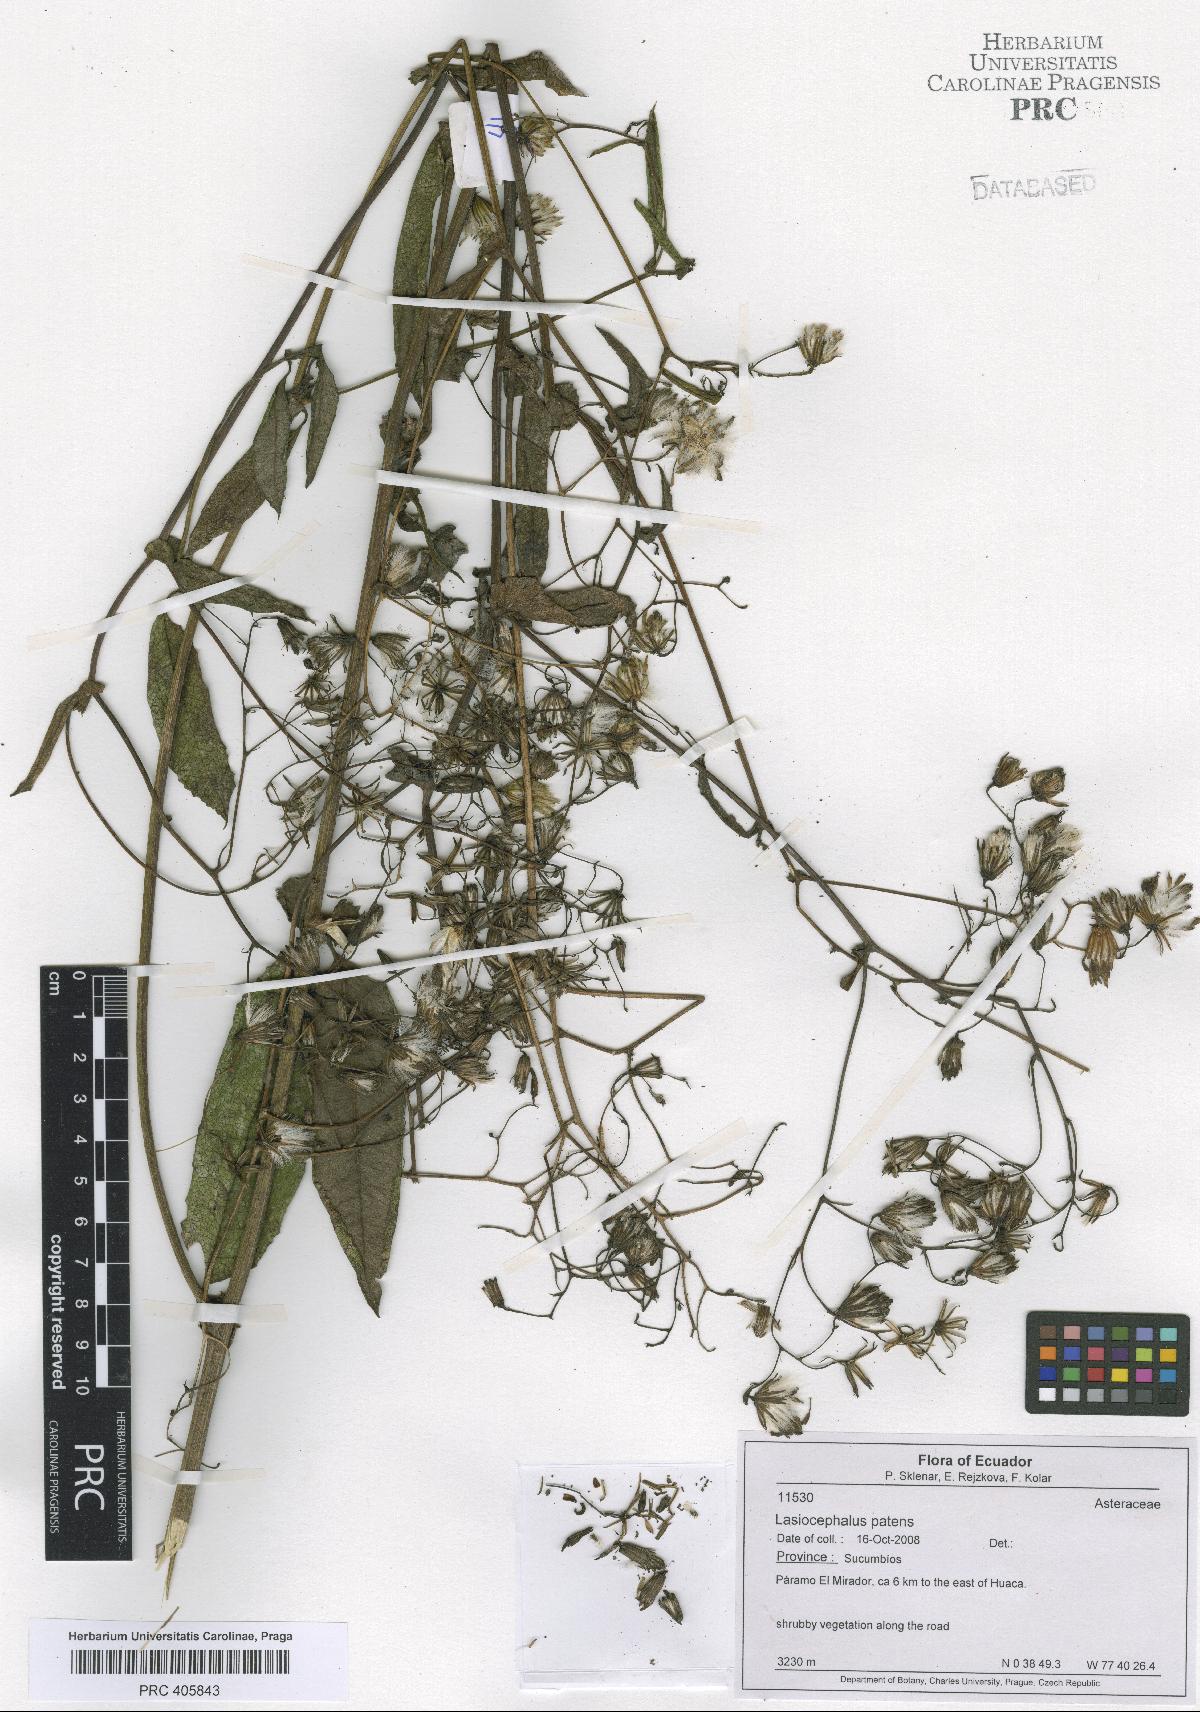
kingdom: Plantae
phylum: Tracheophyta
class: Magnoliopsida
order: Asterales
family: Asteraceae
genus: Aetheolaena
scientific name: Aetheolaena patens
